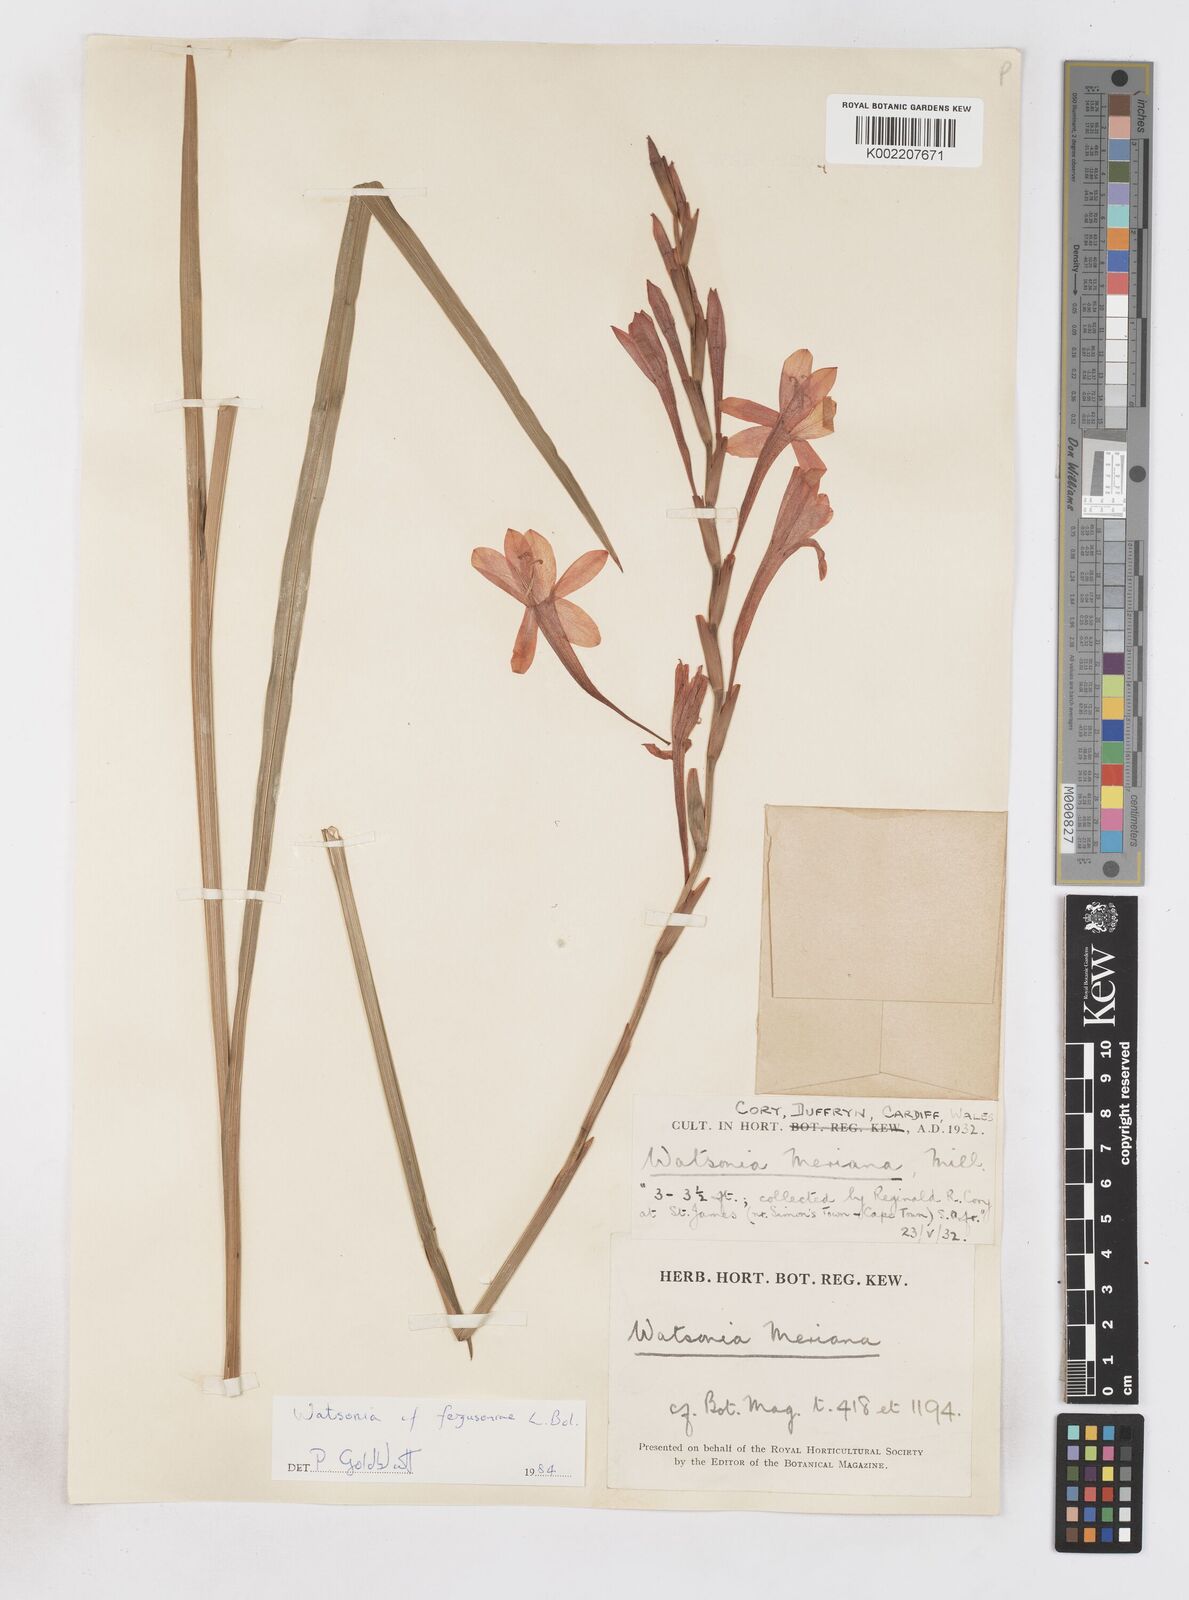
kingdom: Plantae
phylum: Tracheophyta
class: Liliopsida
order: Asparagales
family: Iridaceae
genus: Watsonia
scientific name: Watsonia fergusoniae
